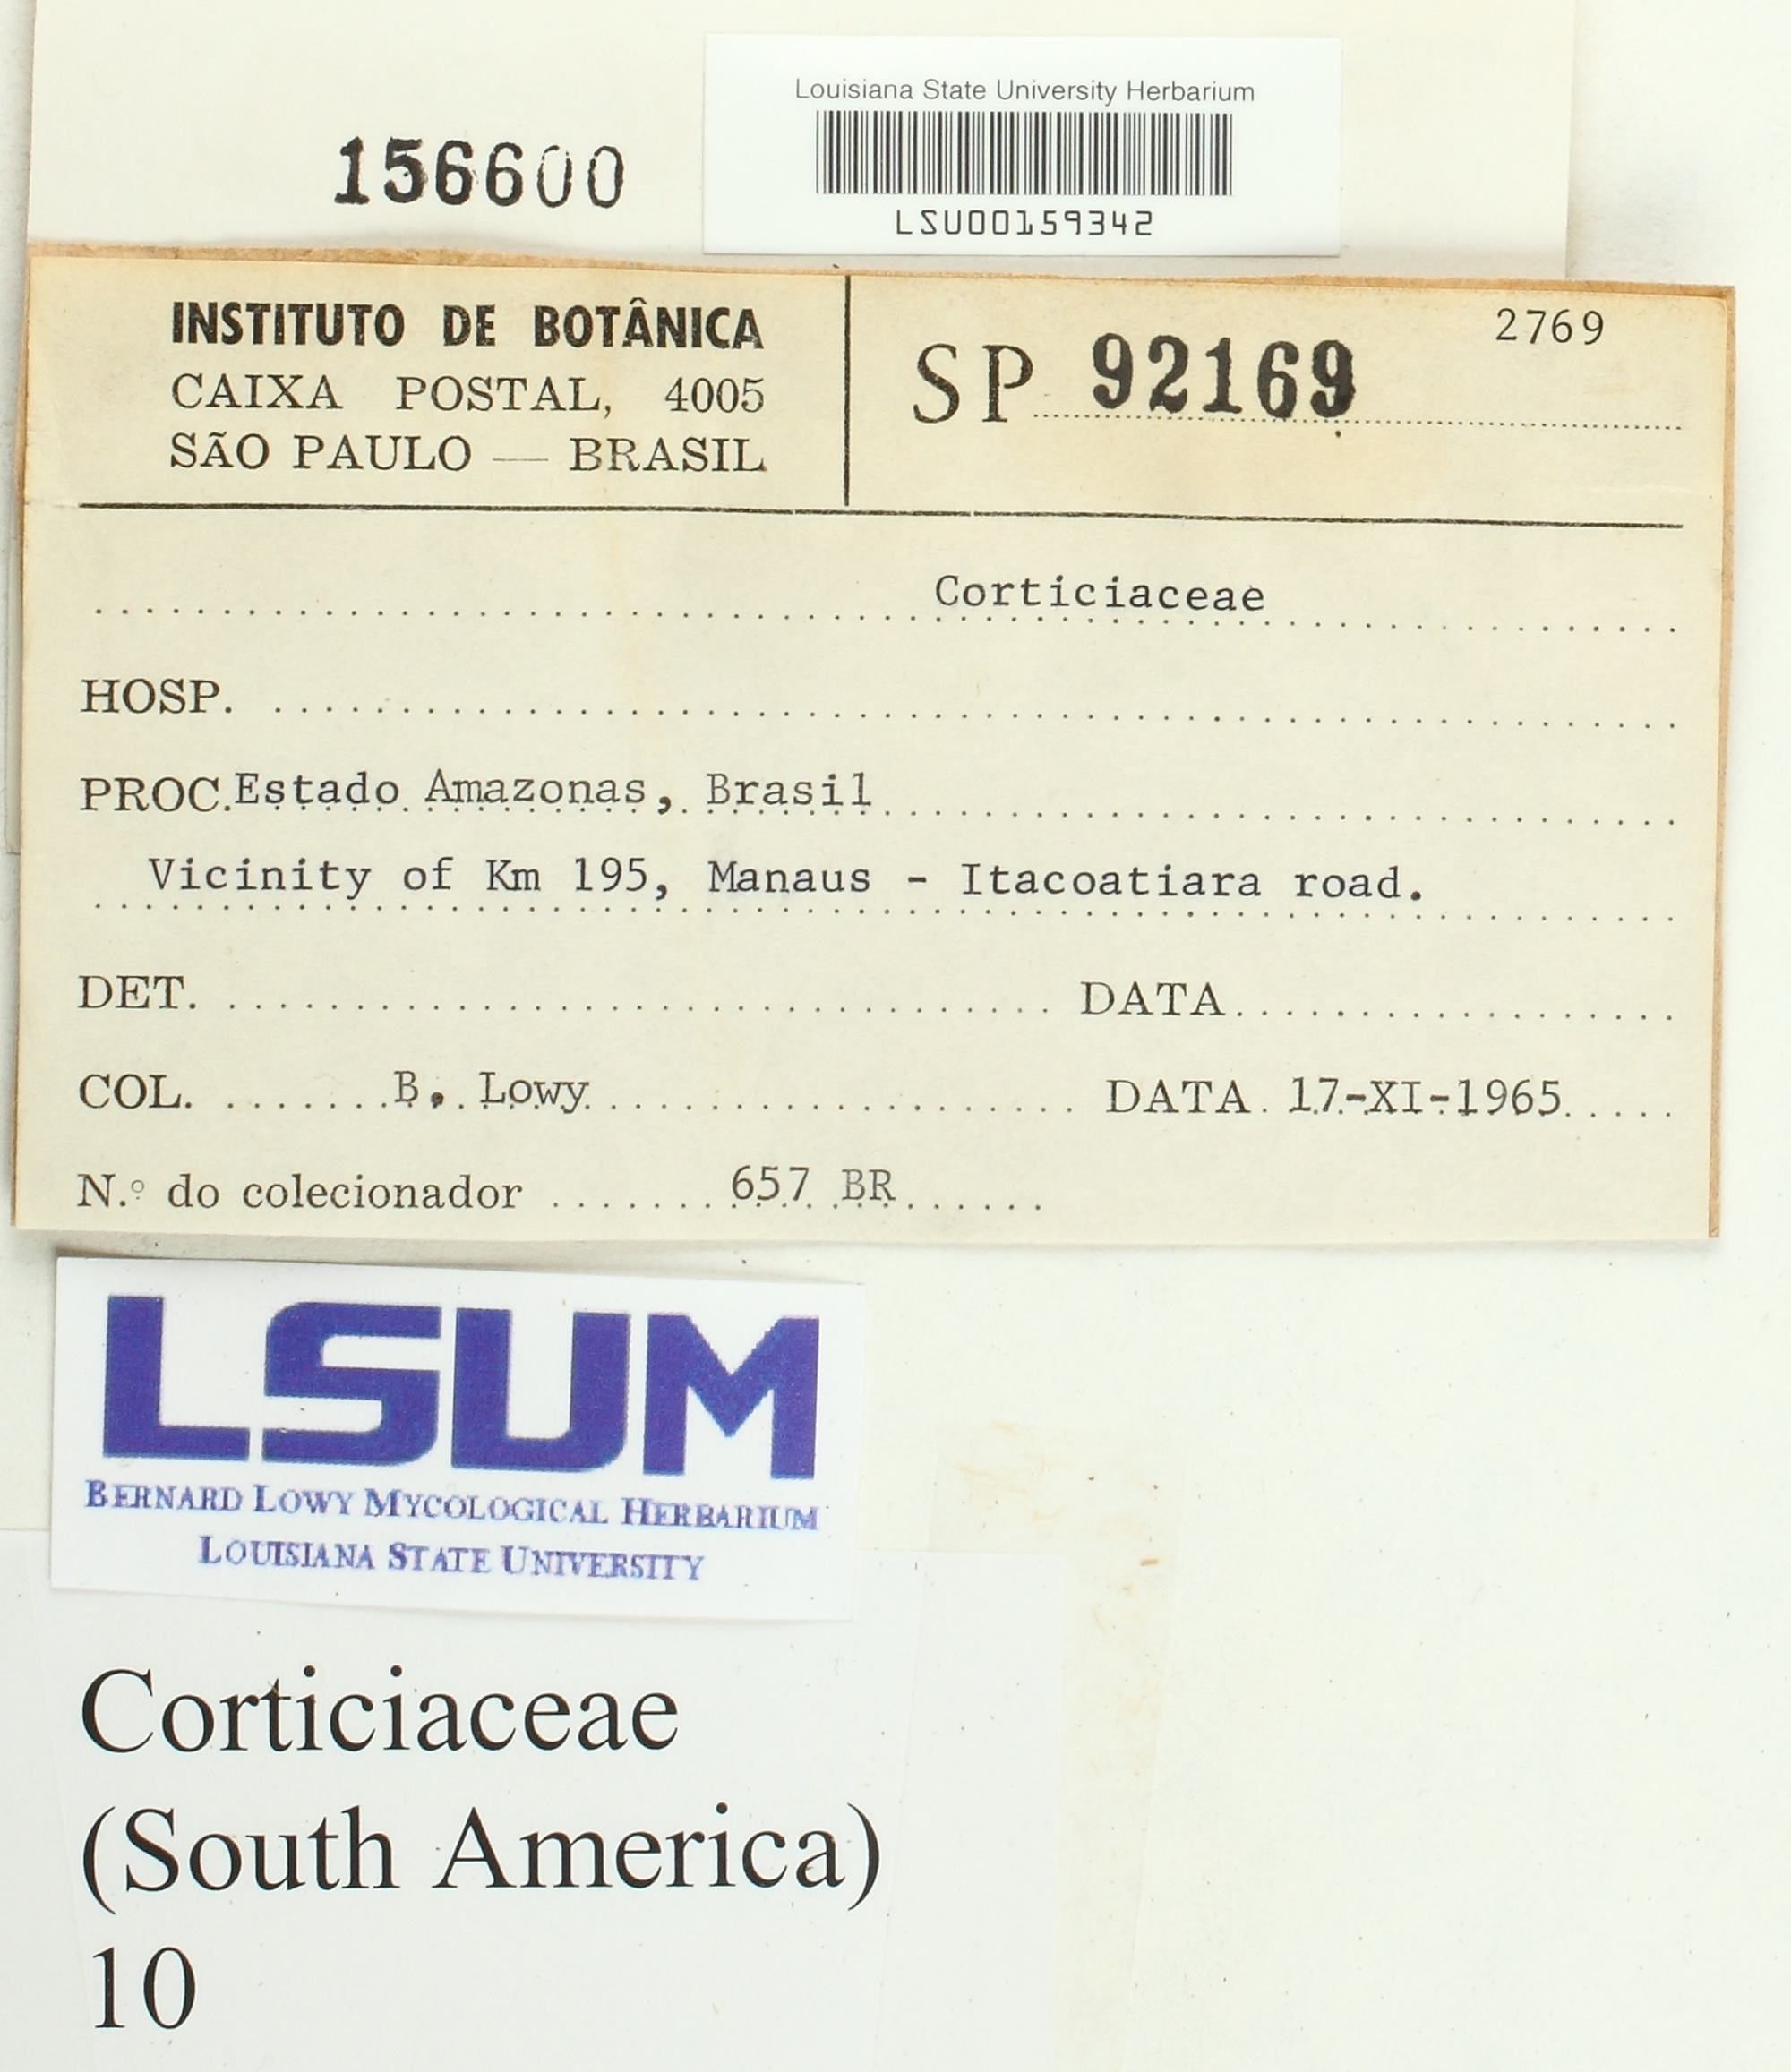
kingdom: Fungi
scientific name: Fungi
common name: Fungi
